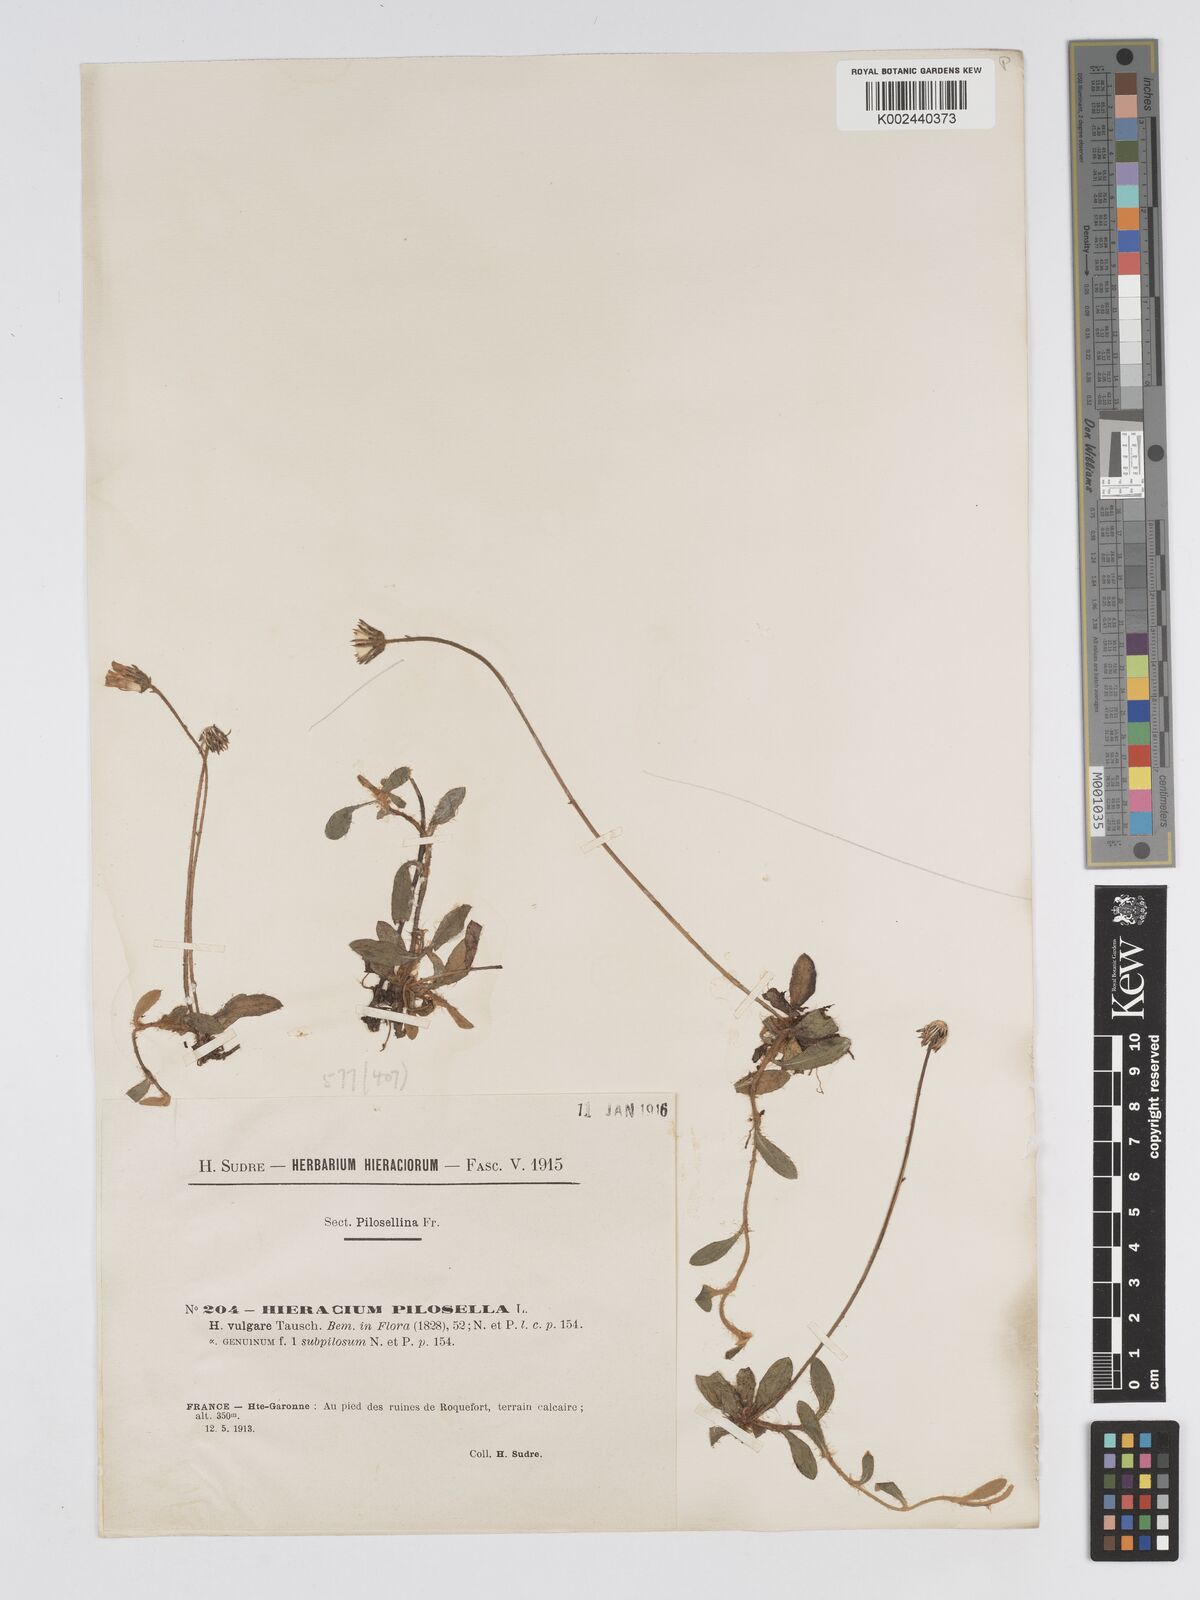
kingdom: Plantae
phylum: Tracheophyta
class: Magnoliopsida
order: Asterales
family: Asteraceae
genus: Pilosella
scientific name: Pilosella officinarum
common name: Mouse-ear hawkweed
